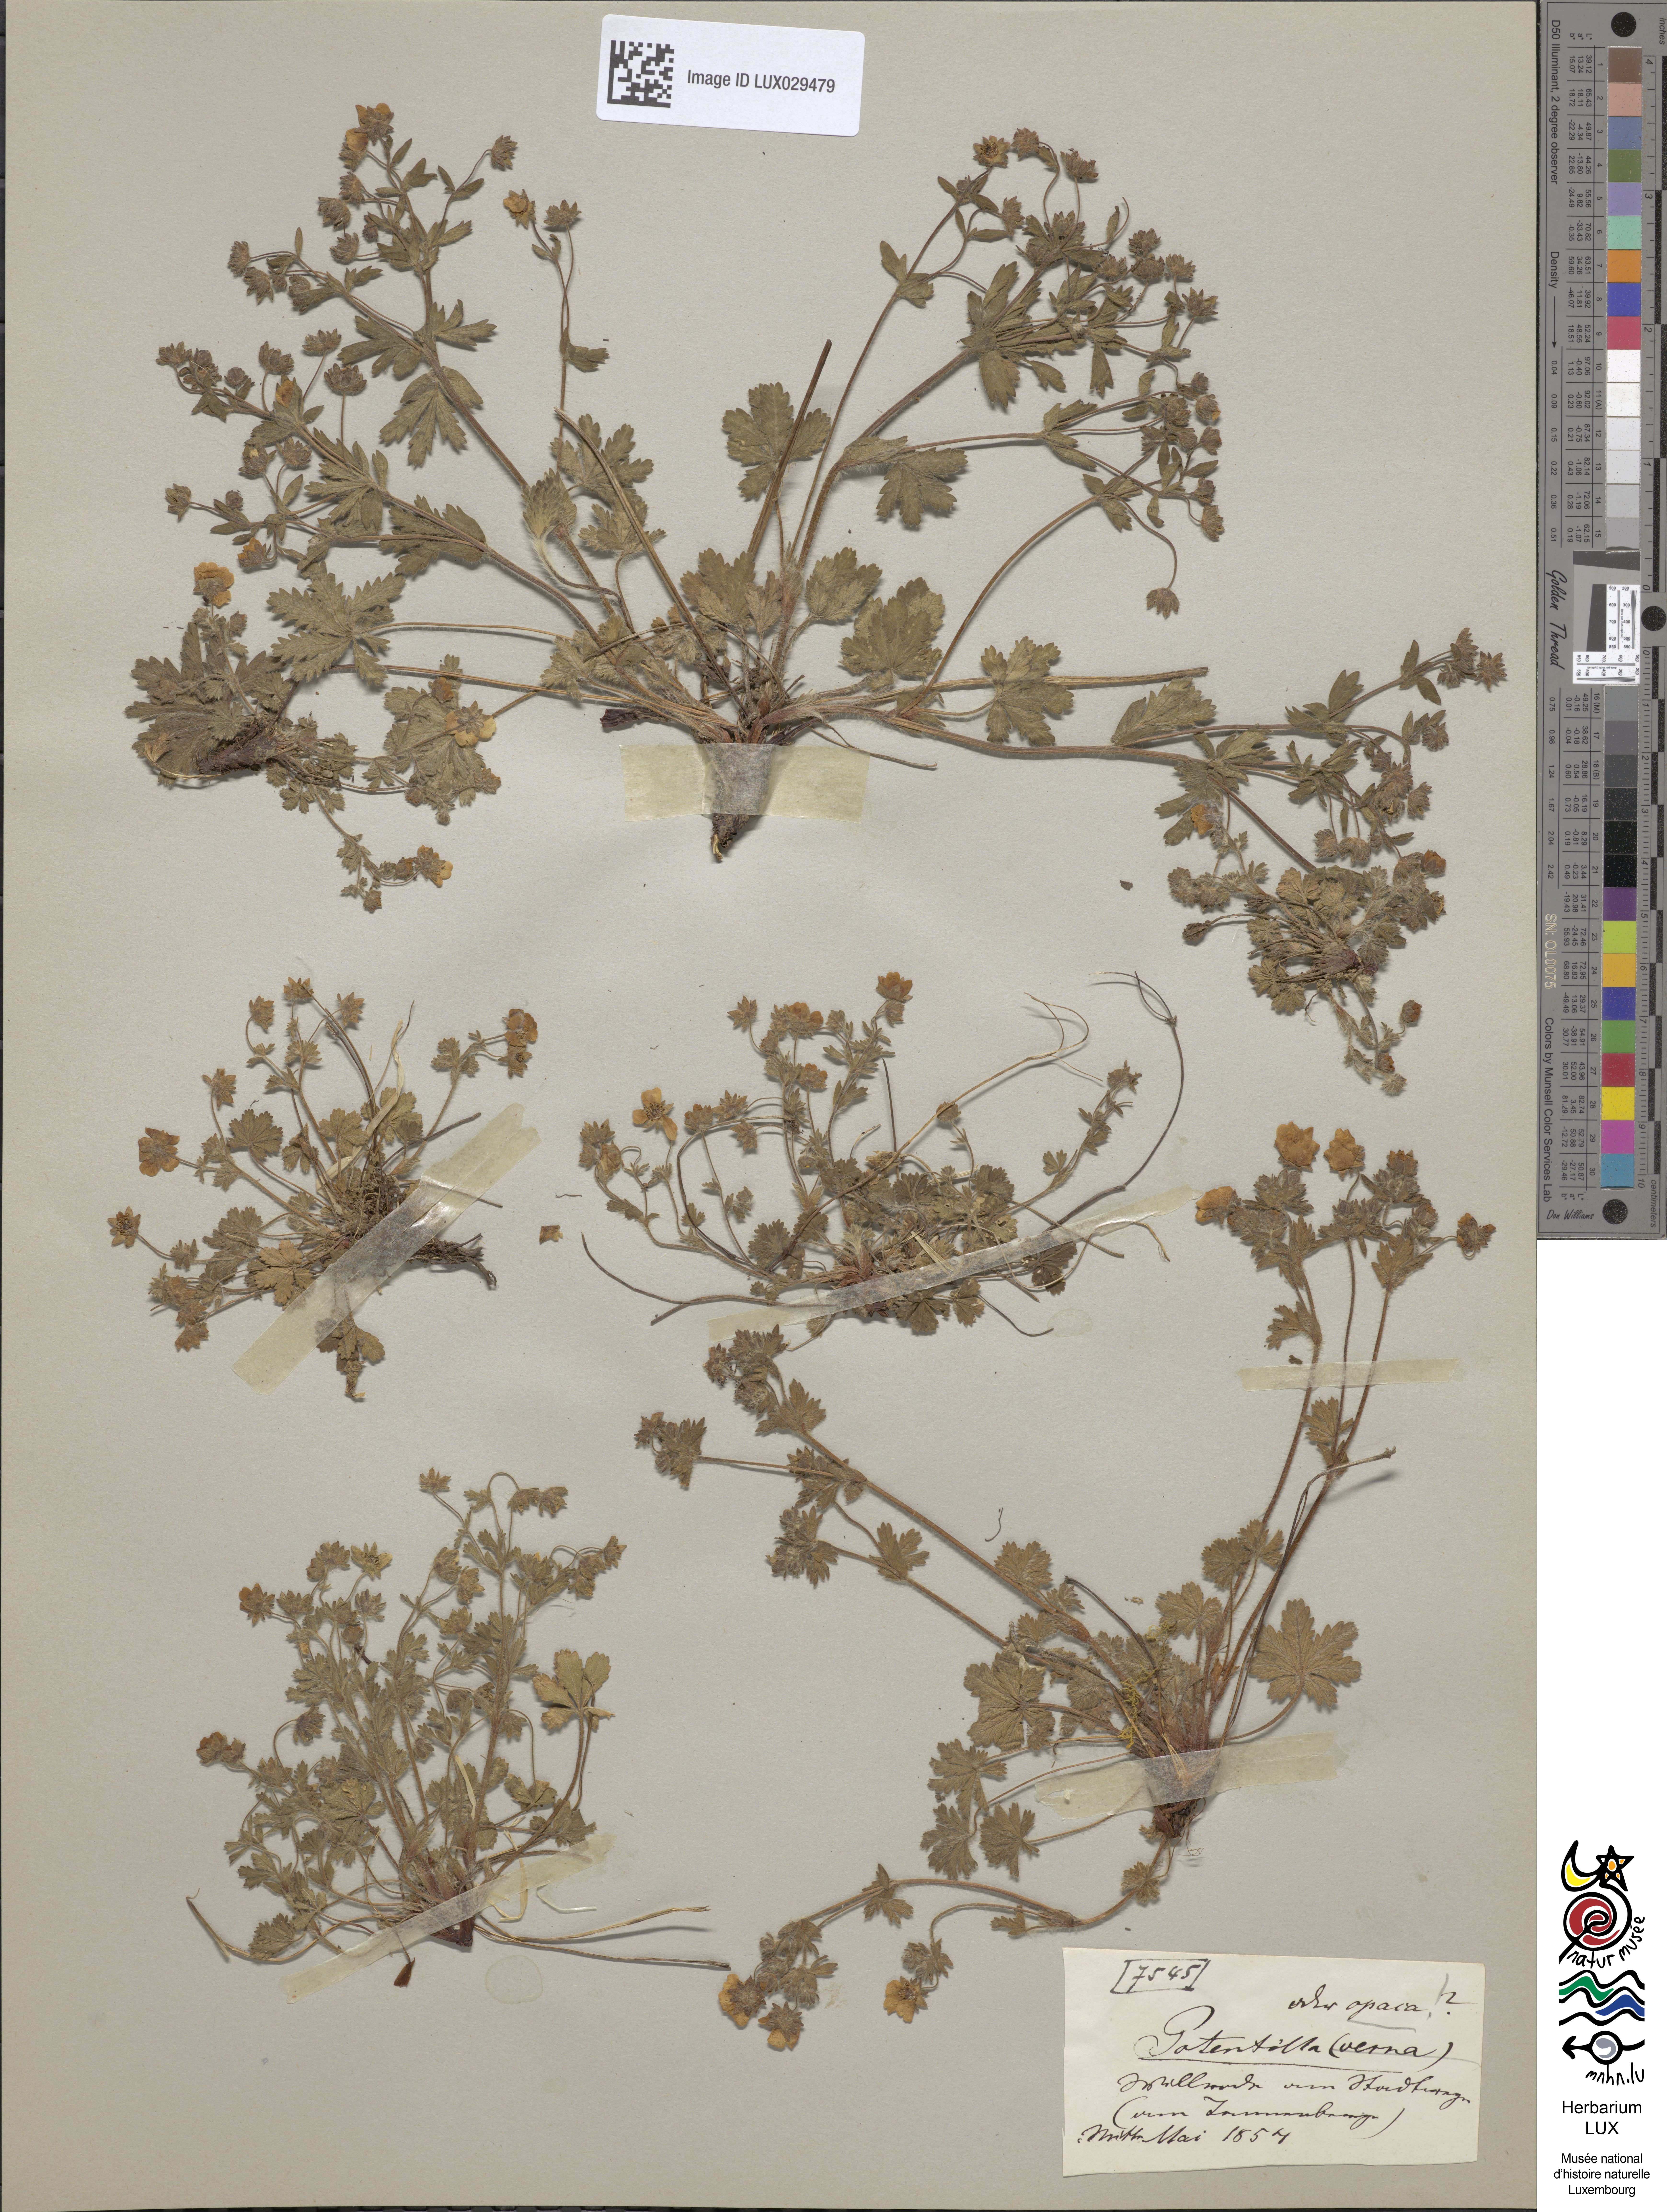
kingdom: Plantae
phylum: Tracheophyta
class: Magnoliopsida
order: Rosales
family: Rosaceae
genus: Potentilla
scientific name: Potentilla heptaphylla
